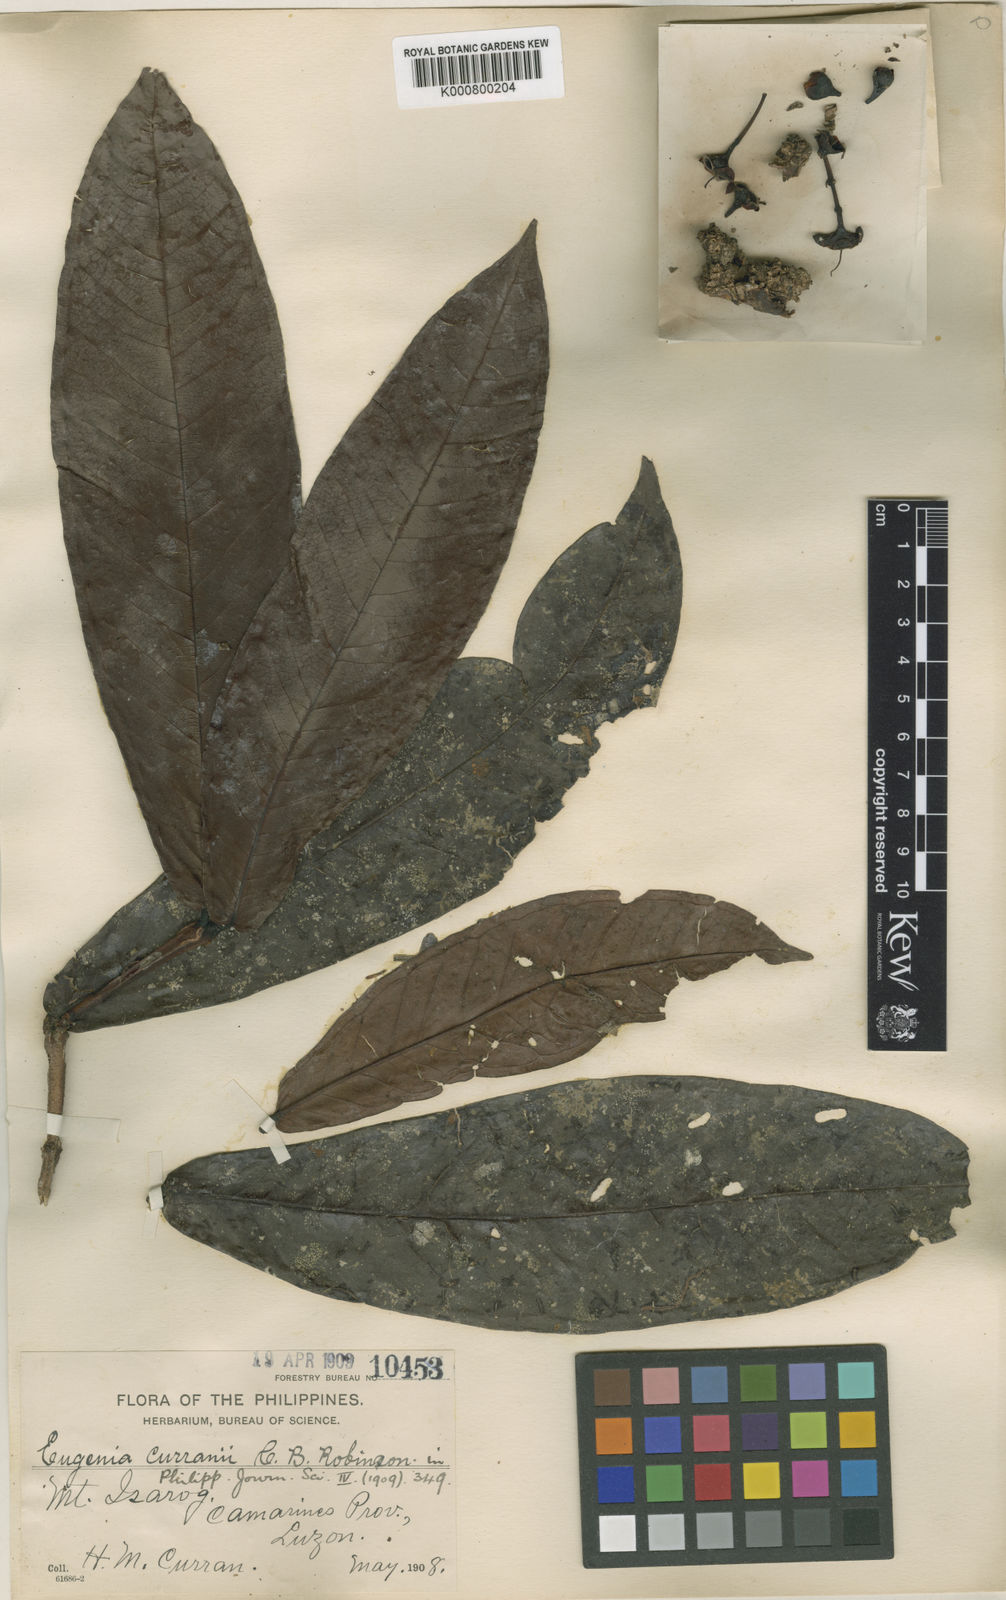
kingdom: Plantae
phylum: Tracheophyta
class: Magnoliopsida
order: Myrtales
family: Myrtaceae
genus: Syzygium
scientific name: Syzygium curranii
